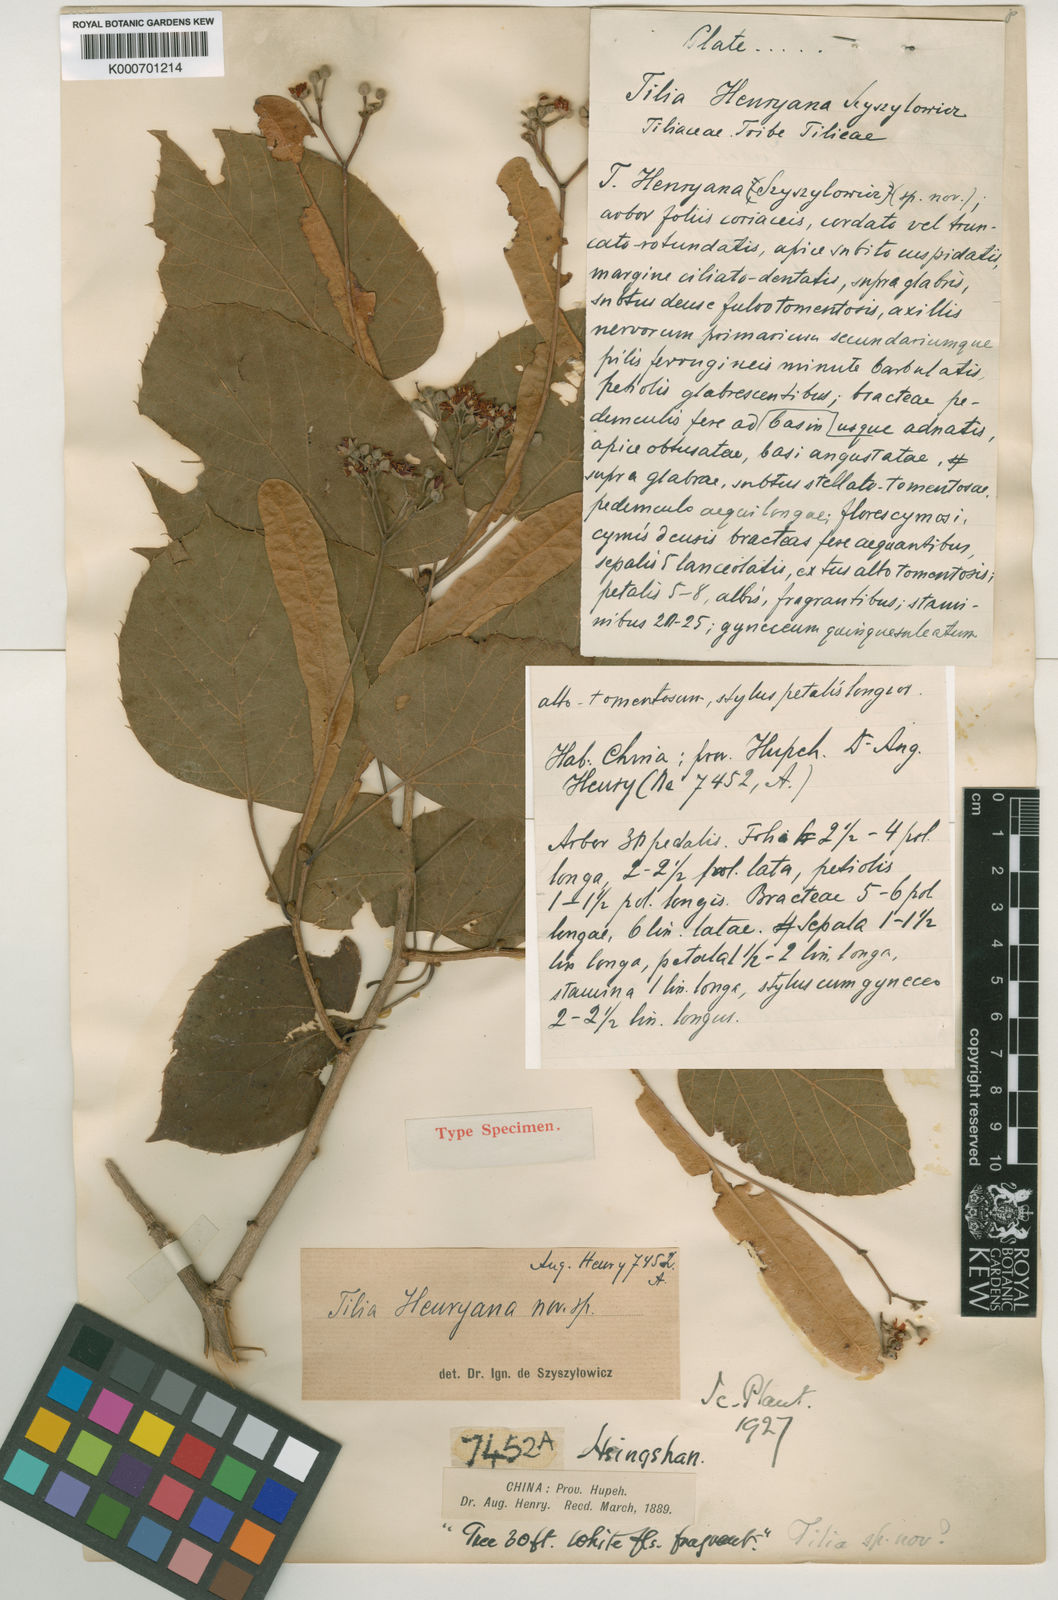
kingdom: Plantae
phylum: Tracheophyta
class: Magnoliopsida
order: Malvales
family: Malvaceae
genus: Tilia
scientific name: Tilia henryana
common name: Henry's lime
